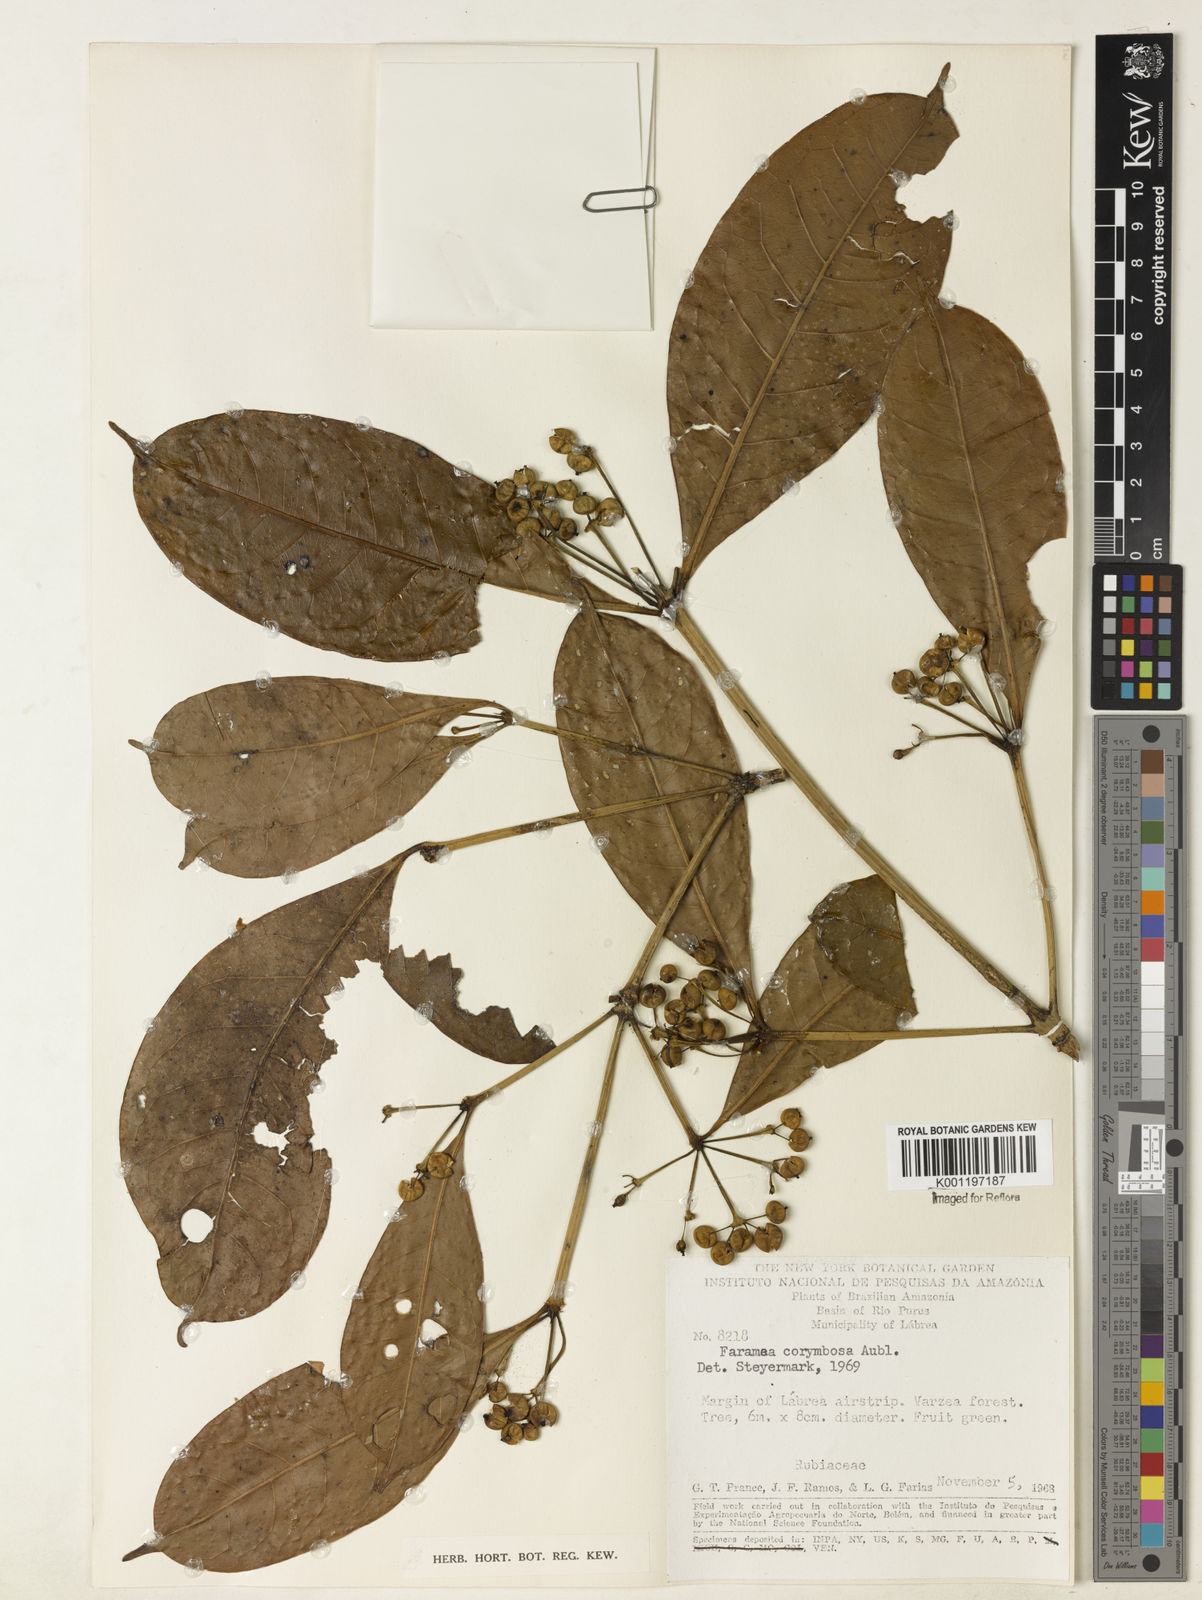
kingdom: Plantae
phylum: Tracheophyta
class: Magnoliopsida
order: Gentianales
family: Rubiaceae
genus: Faramea
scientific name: Faramea corymbosa
